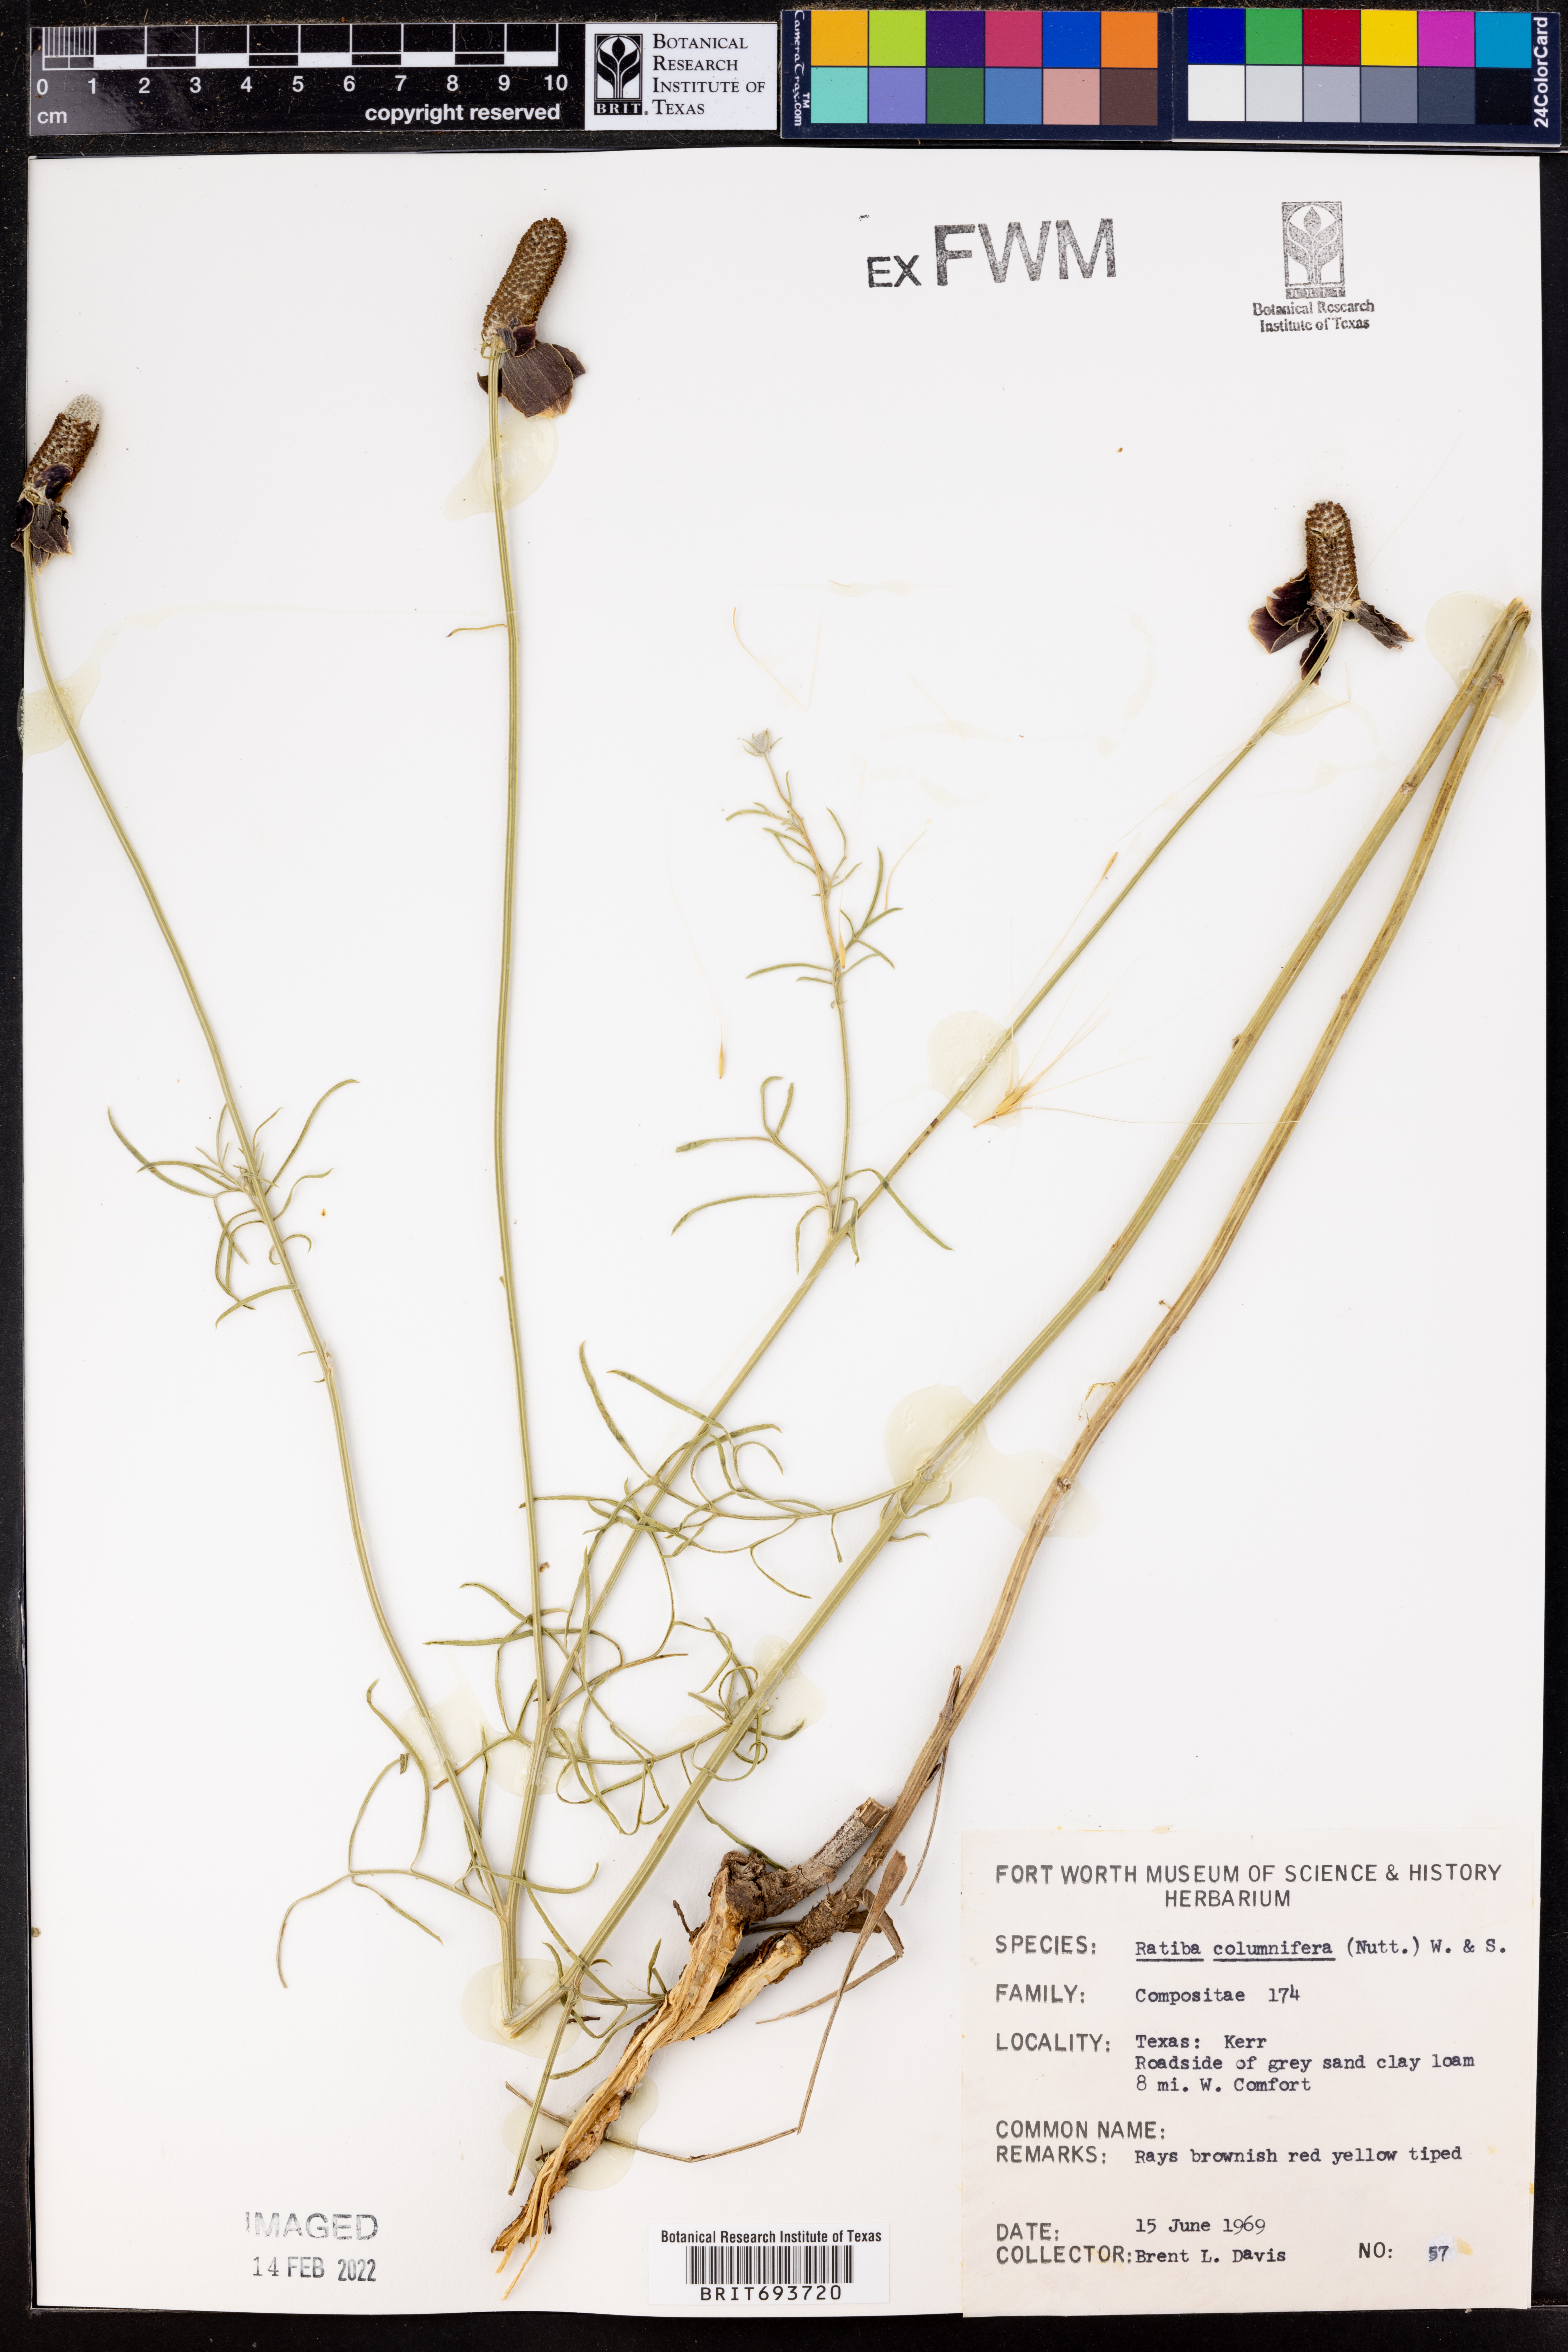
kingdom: Plantae
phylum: Tracheophyta
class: Magnoliopsida
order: Asterales
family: Asteraceae
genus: Ratibida
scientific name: Ratibida columnifera
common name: Prairie coneflower
